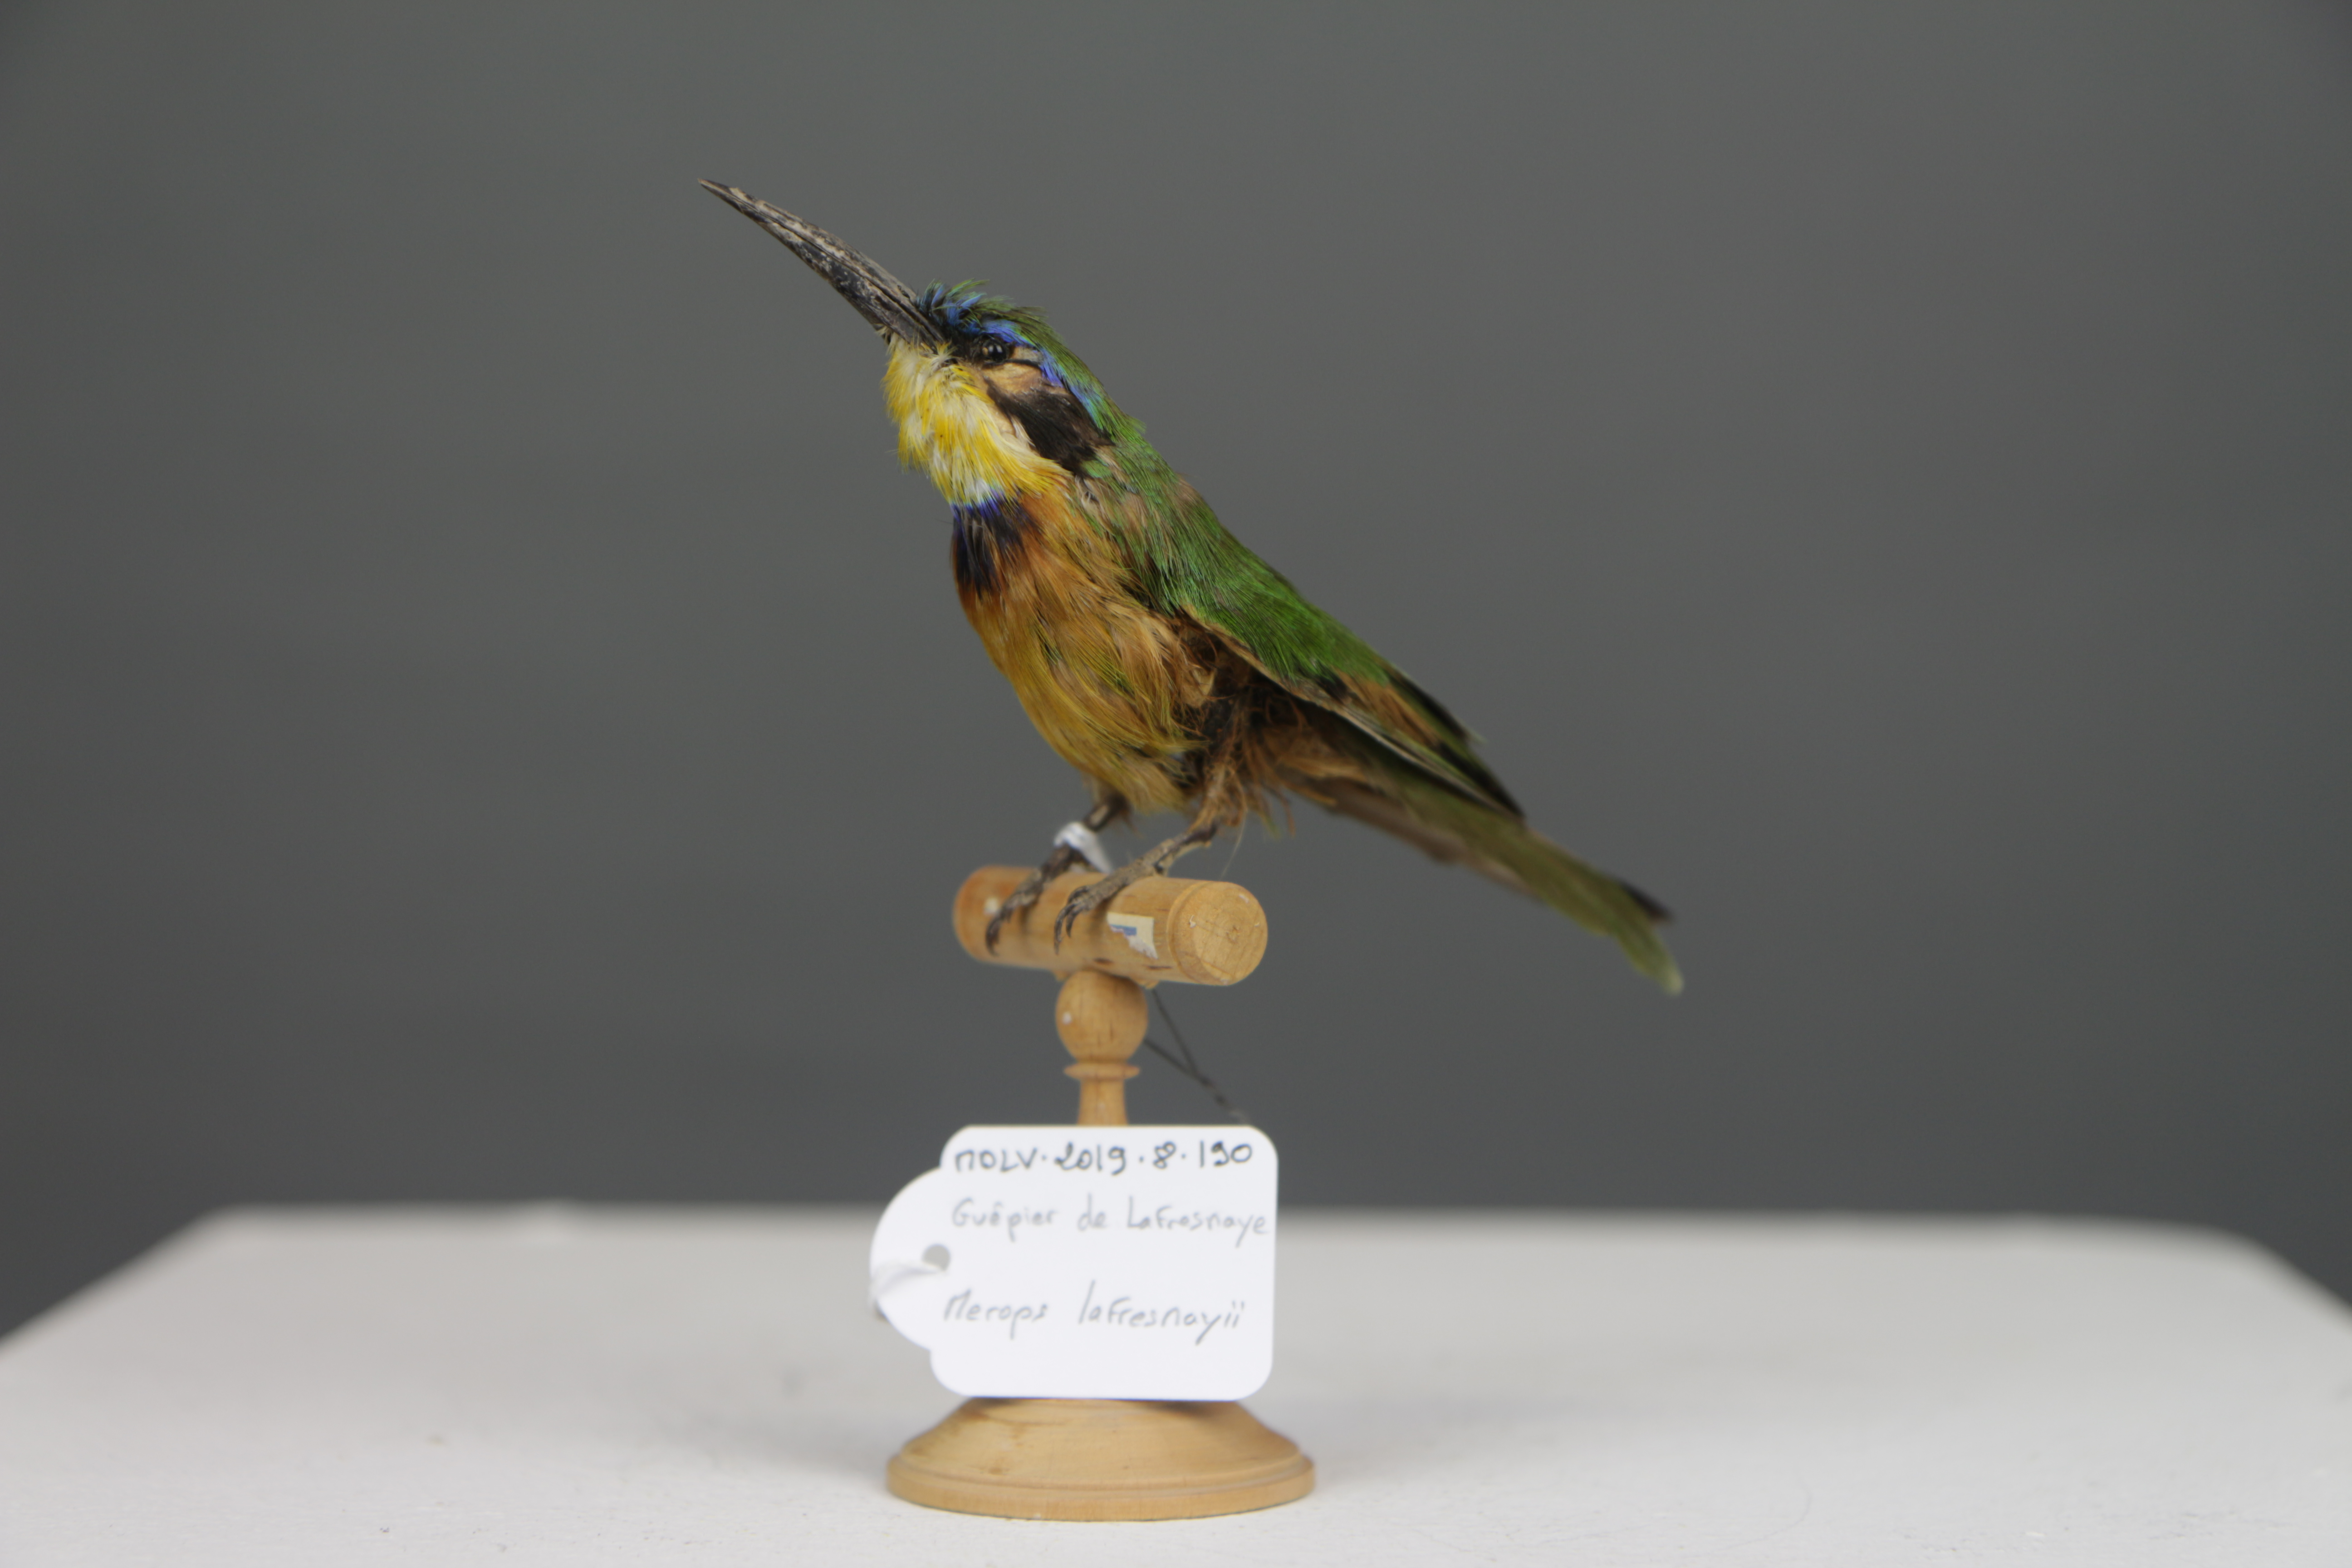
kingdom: Animalia
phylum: Chordata
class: Aves
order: Coraciiformes
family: Meropidae
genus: Merops
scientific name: Merops lafresnayii
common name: Ethiopian bee-eater
